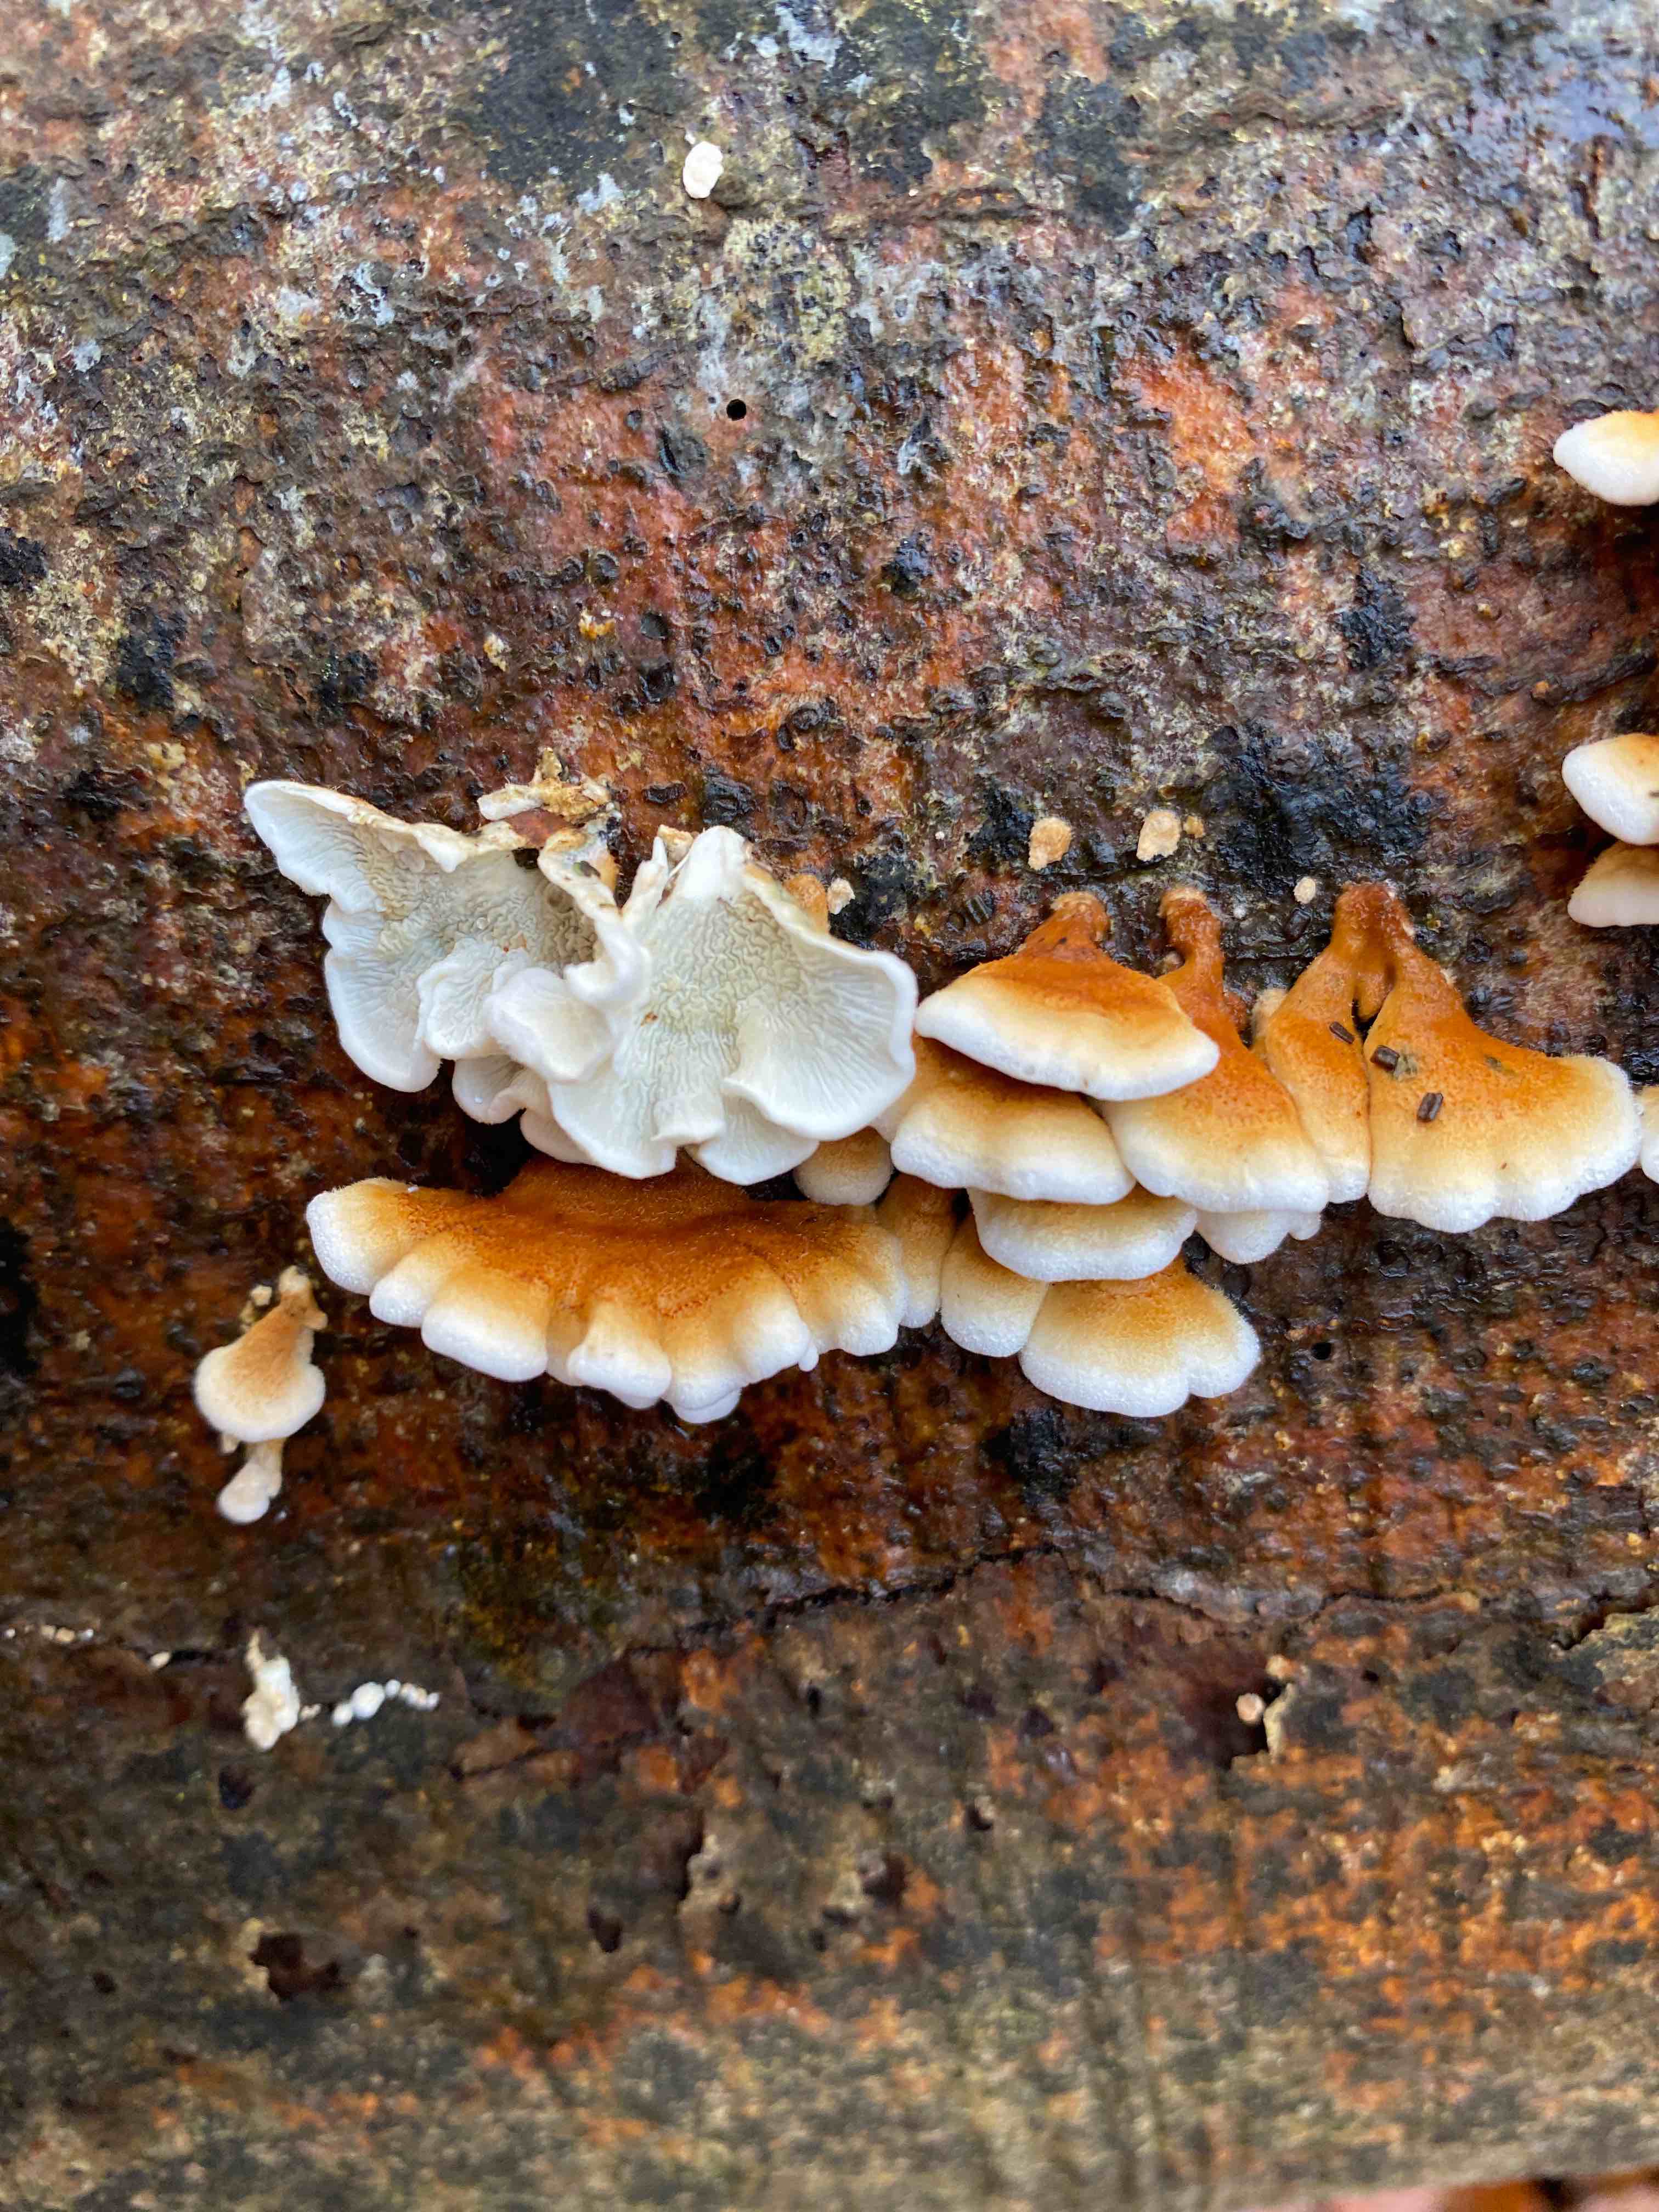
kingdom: Fungi
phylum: Basidiomycota
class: Agaricomycetes
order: Amylocorticiales
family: Amylocorticiaceae
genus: Plicaturopsis
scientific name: Plicaturopsis crispa
